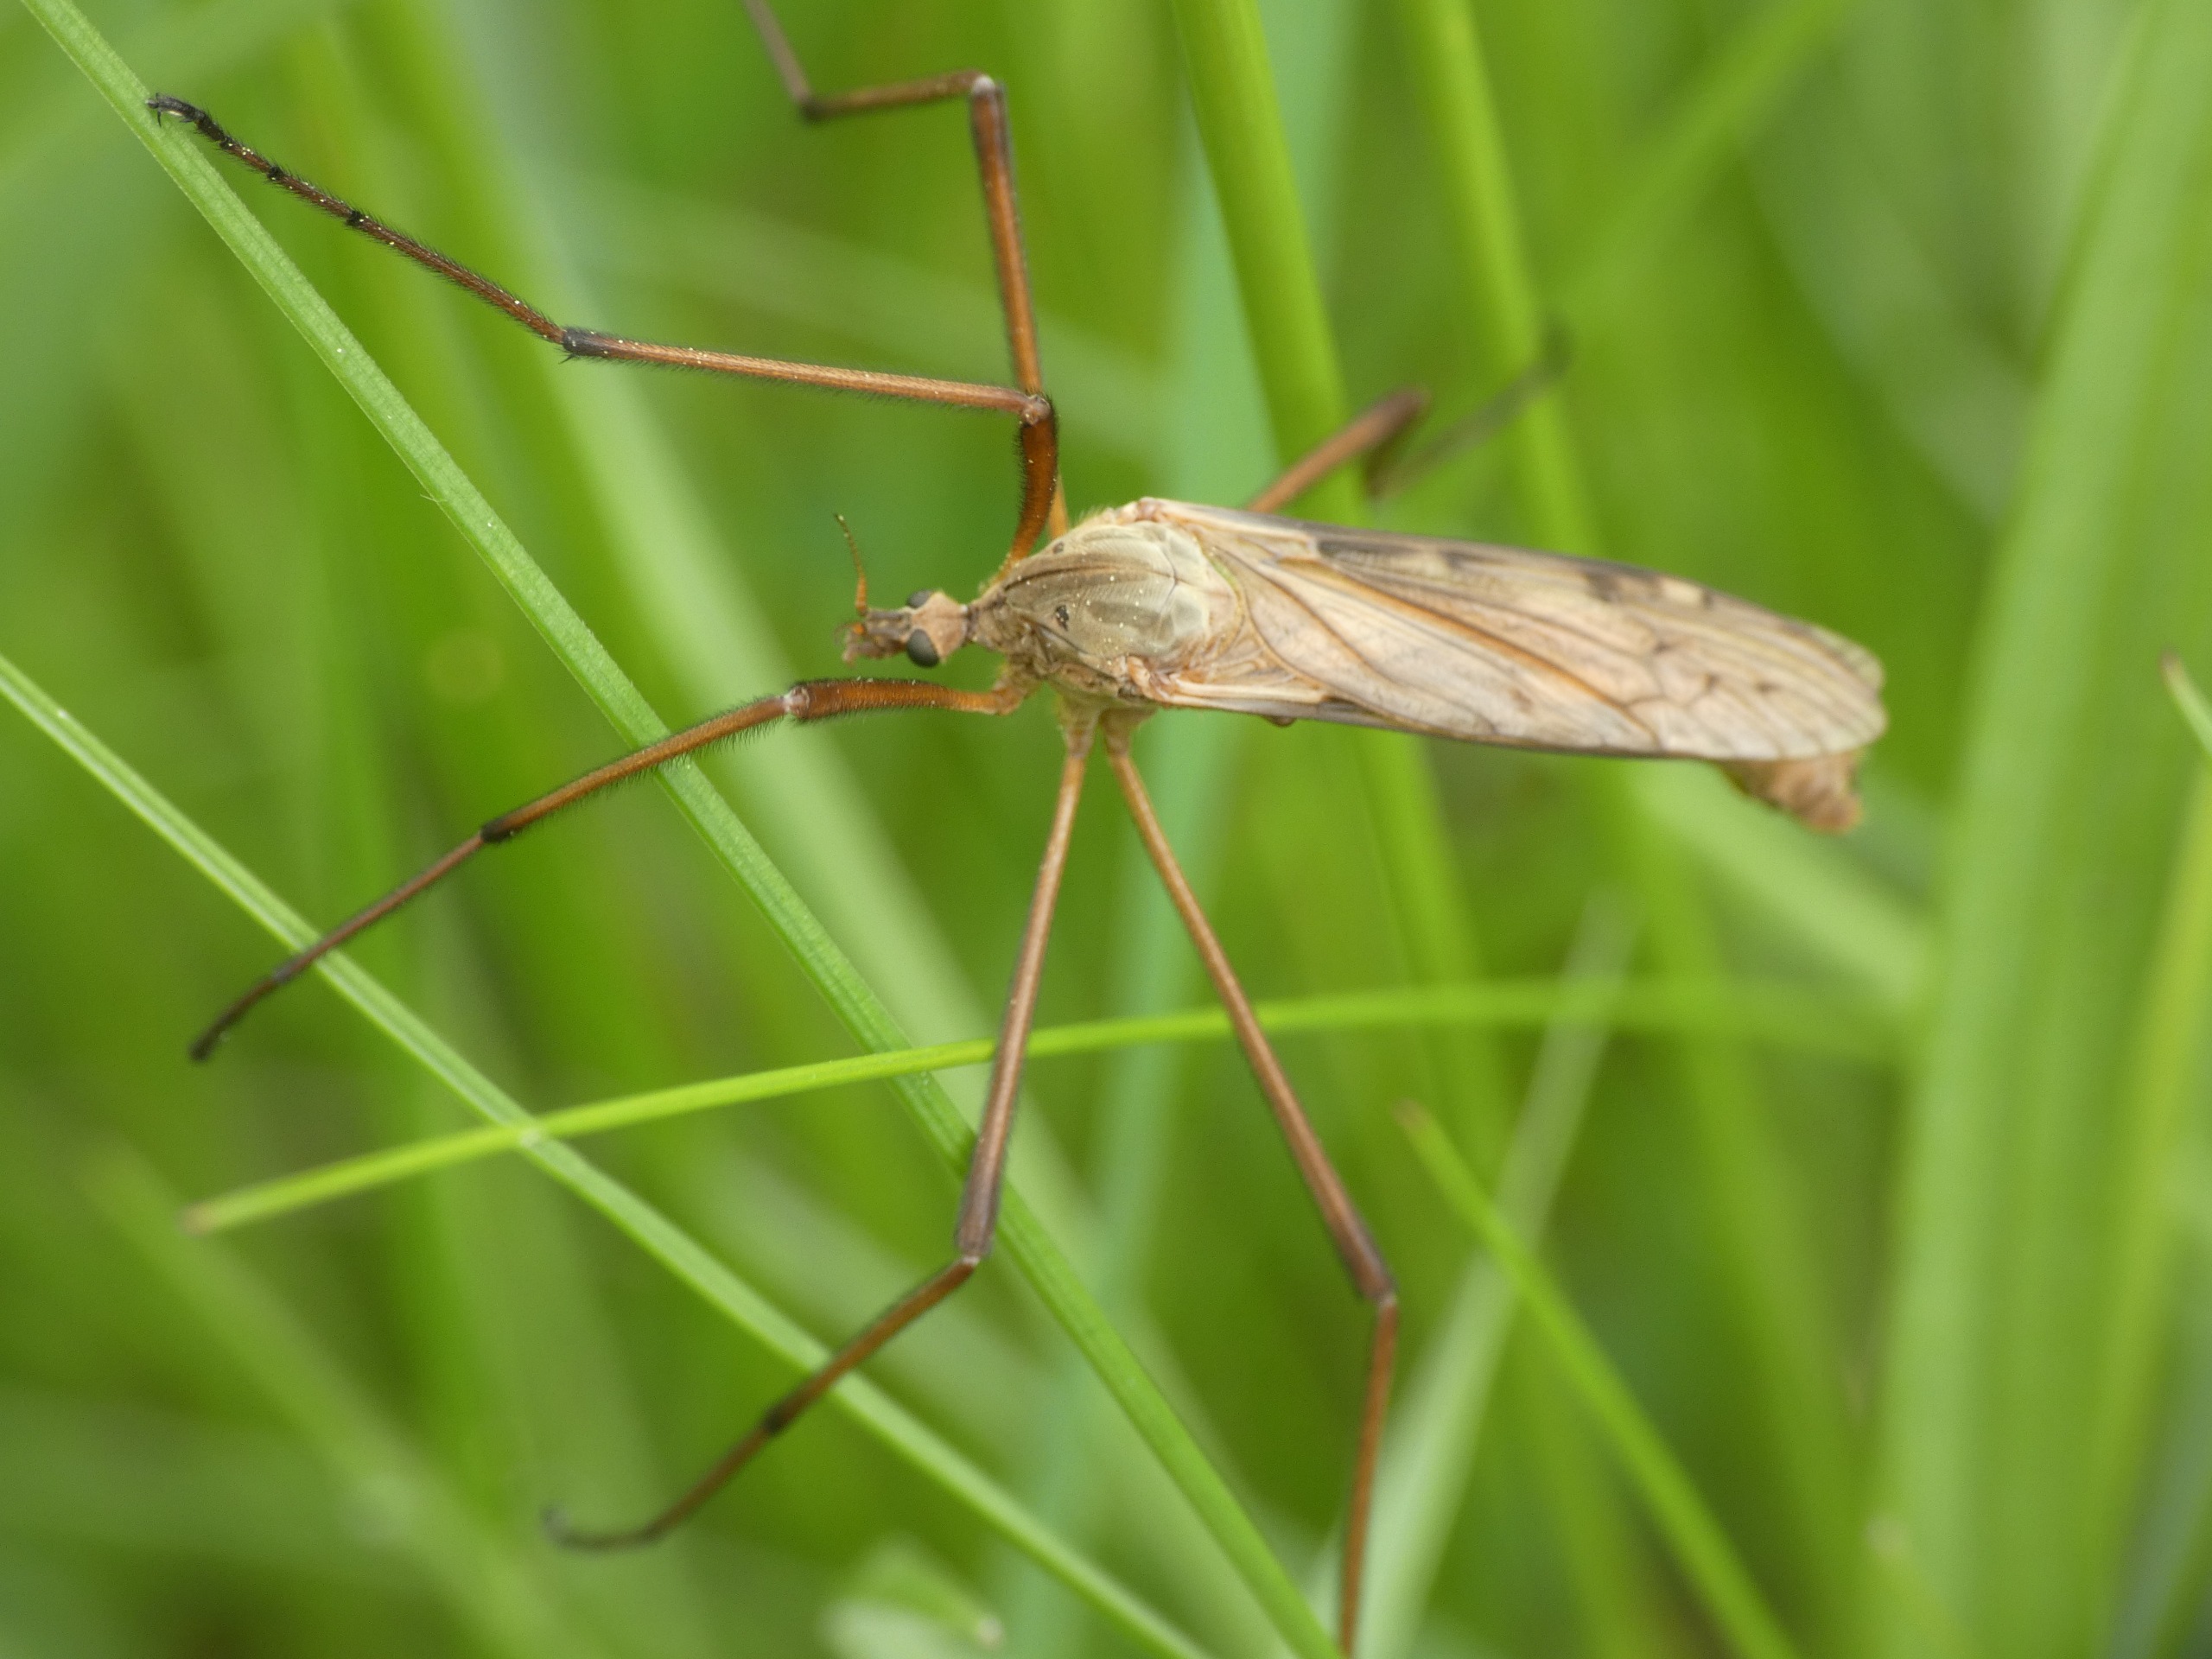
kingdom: Animalia
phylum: Arthropoda
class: Insecta
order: Diptera
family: Limoniidae
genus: Eutonia
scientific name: Eutonia barbipes
